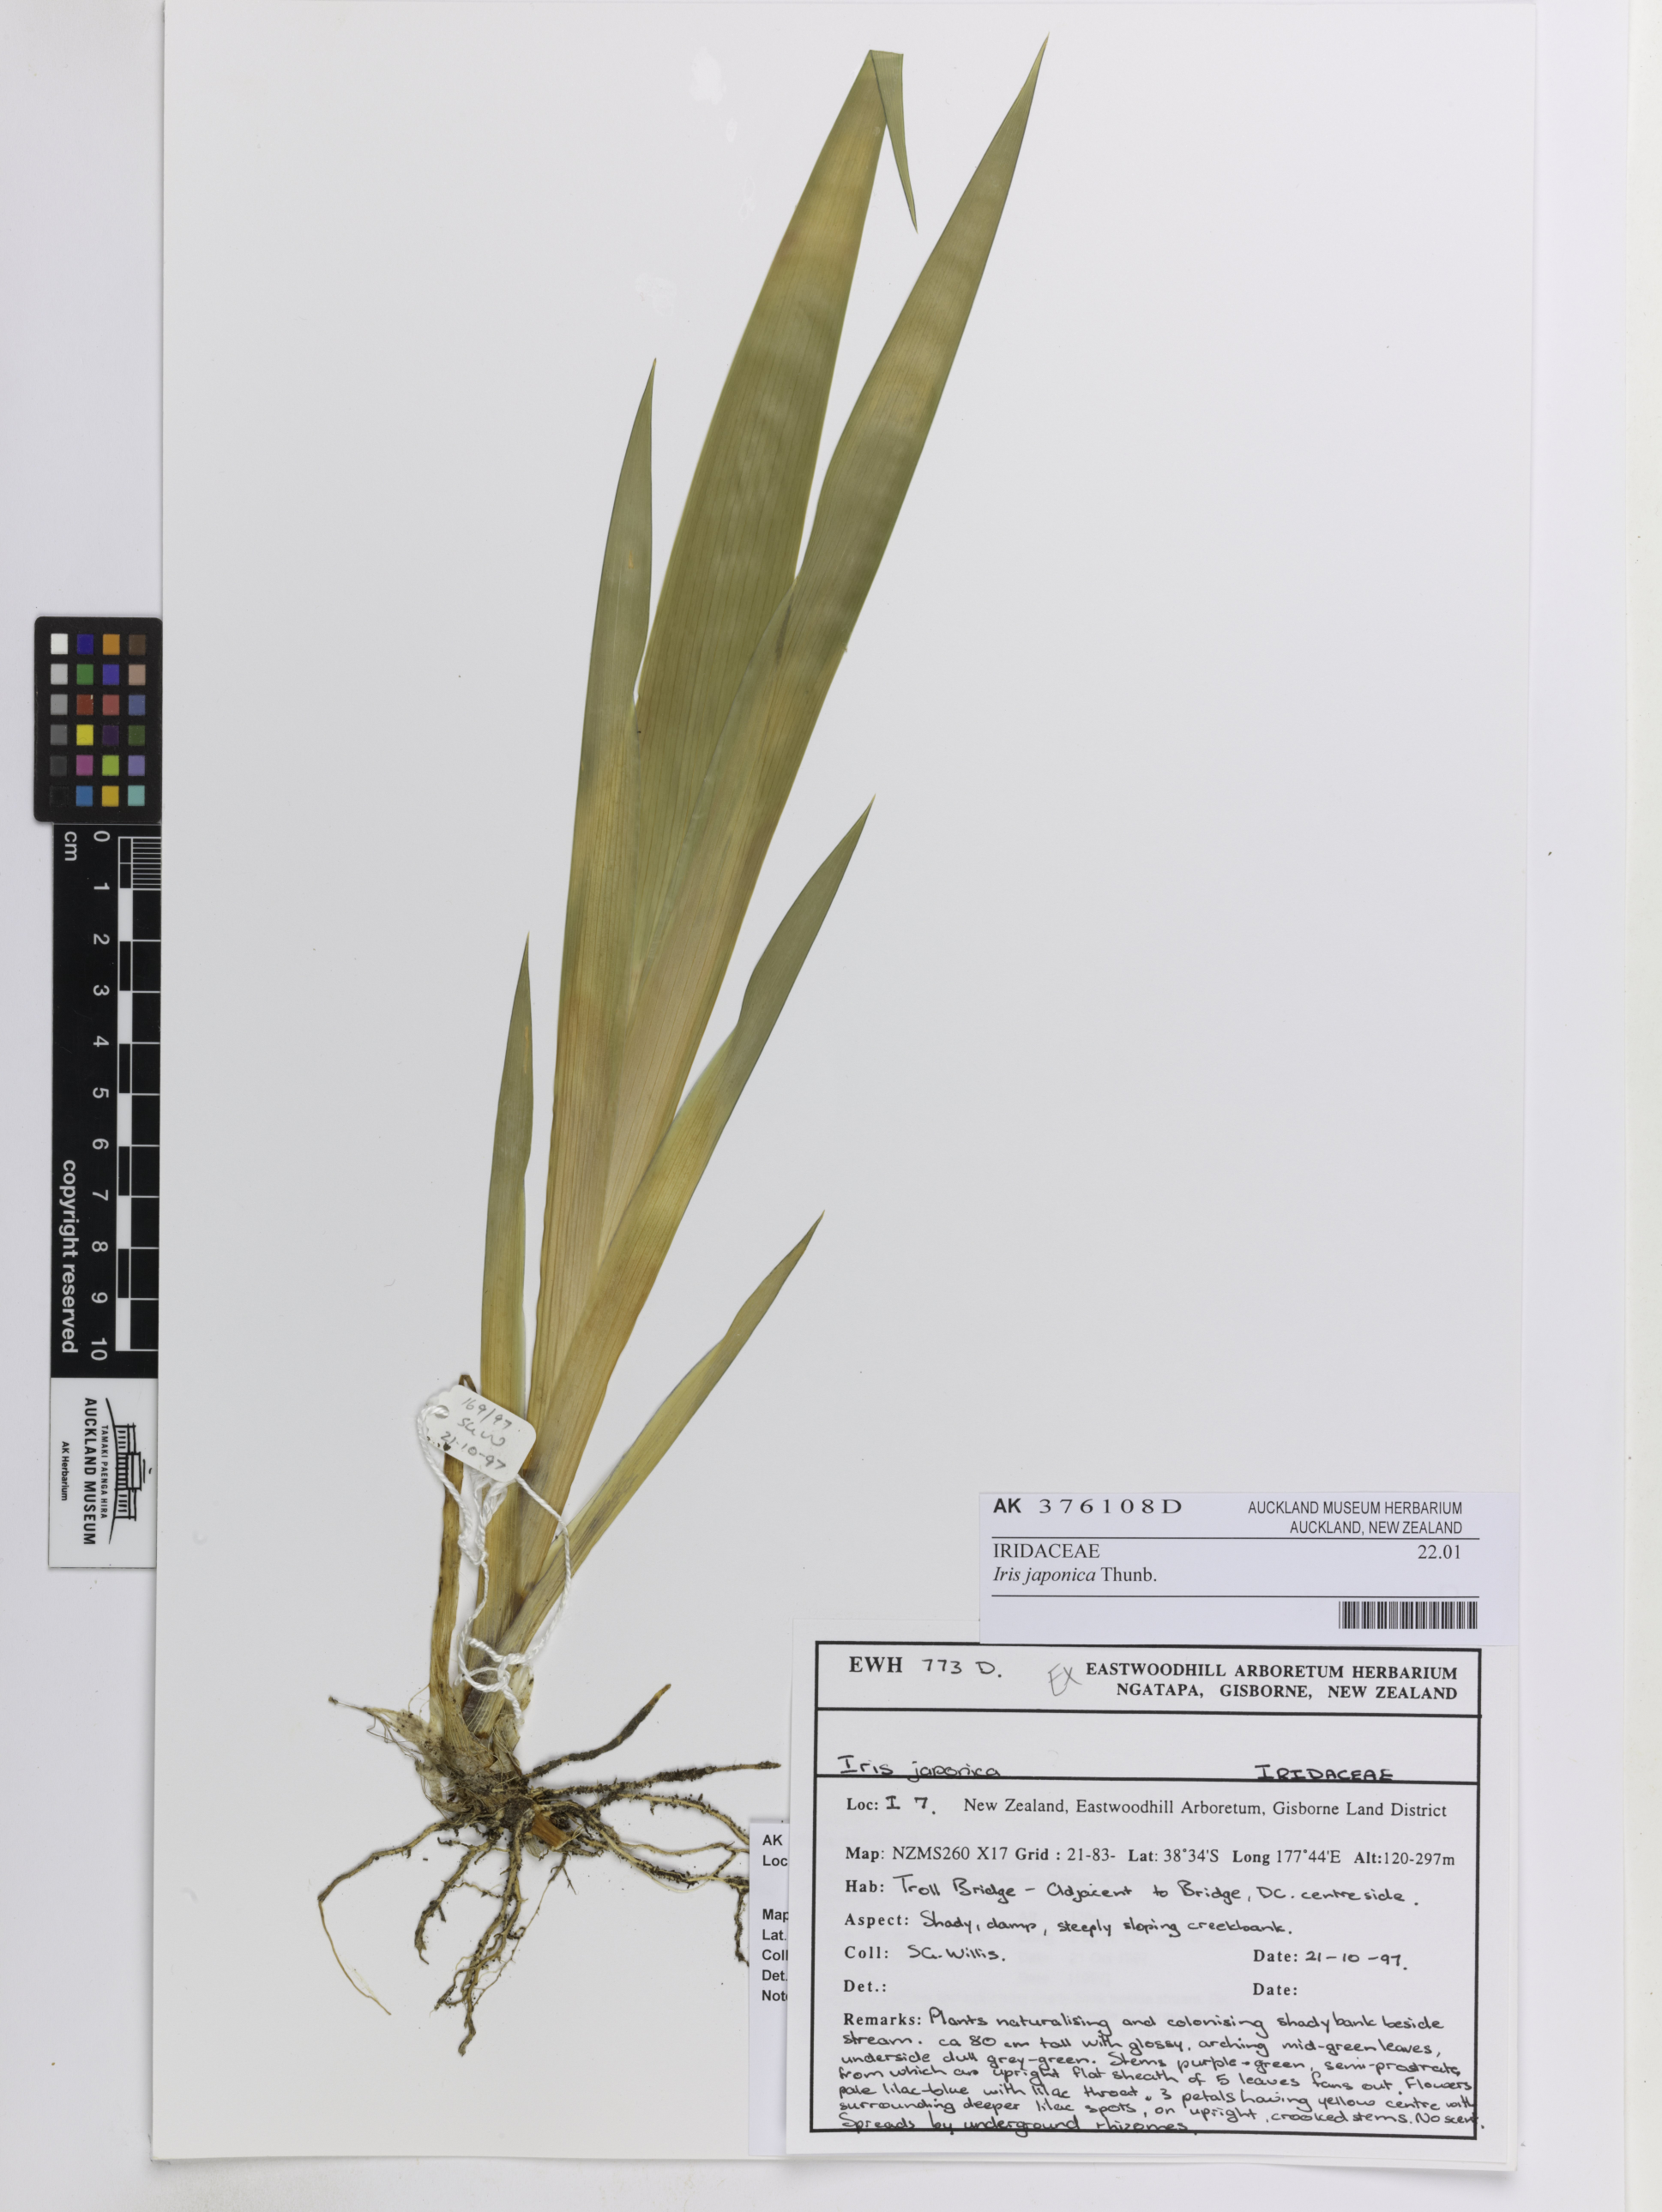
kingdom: Plantae
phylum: Tracheophyta
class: Liliopsida
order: Asparagales
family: Iridaceae
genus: Iris
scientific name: Iris japonica
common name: Butterfly-flower
